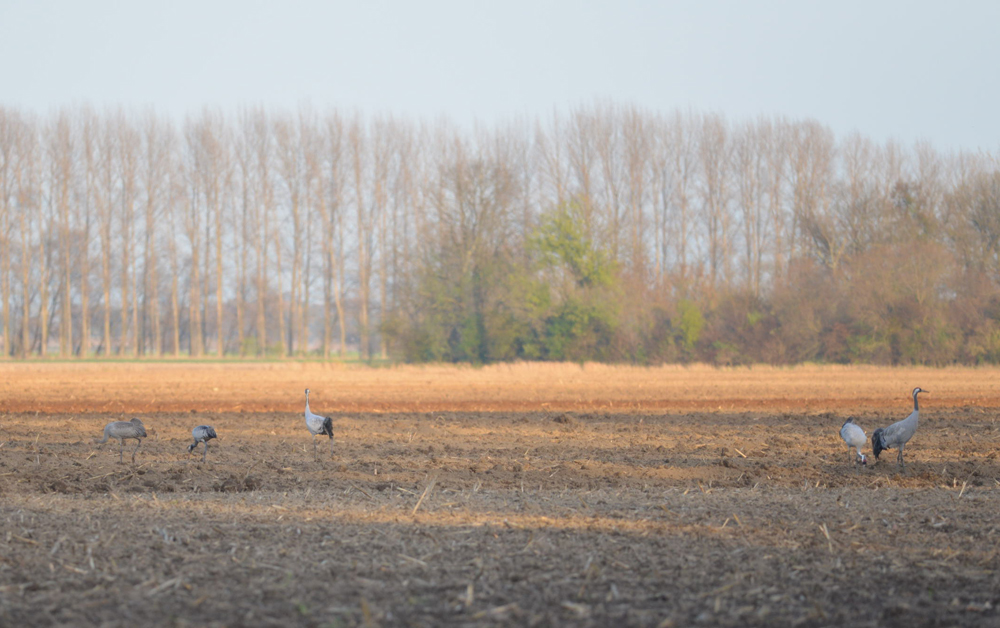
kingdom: Animalia
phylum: Chordata
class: Aves
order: Gruiformes
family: Gruidae
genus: Grus
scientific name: Grus grus
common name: Common crane
